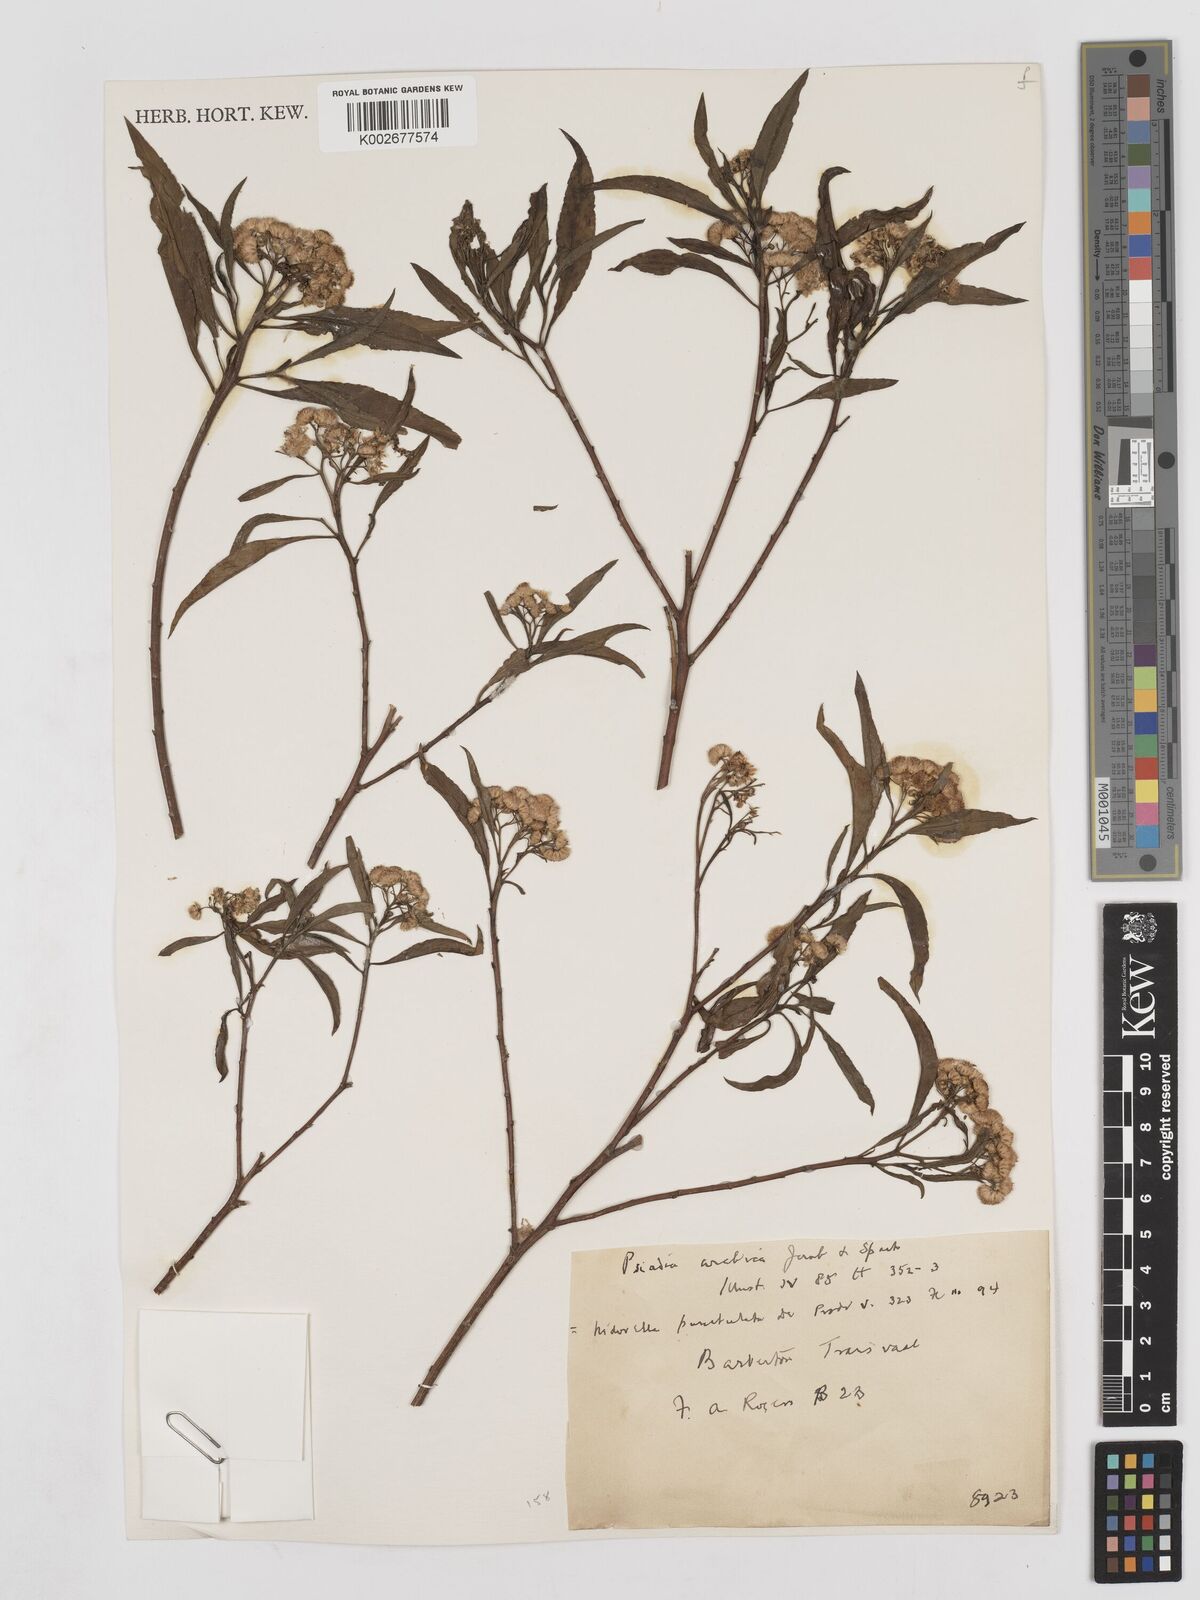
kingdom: Plantae
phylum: Tracheophyta
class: Magnoliopsida
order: Asterales
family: Asteraceae
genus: Psiadia
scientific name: Psiadia punctulata
